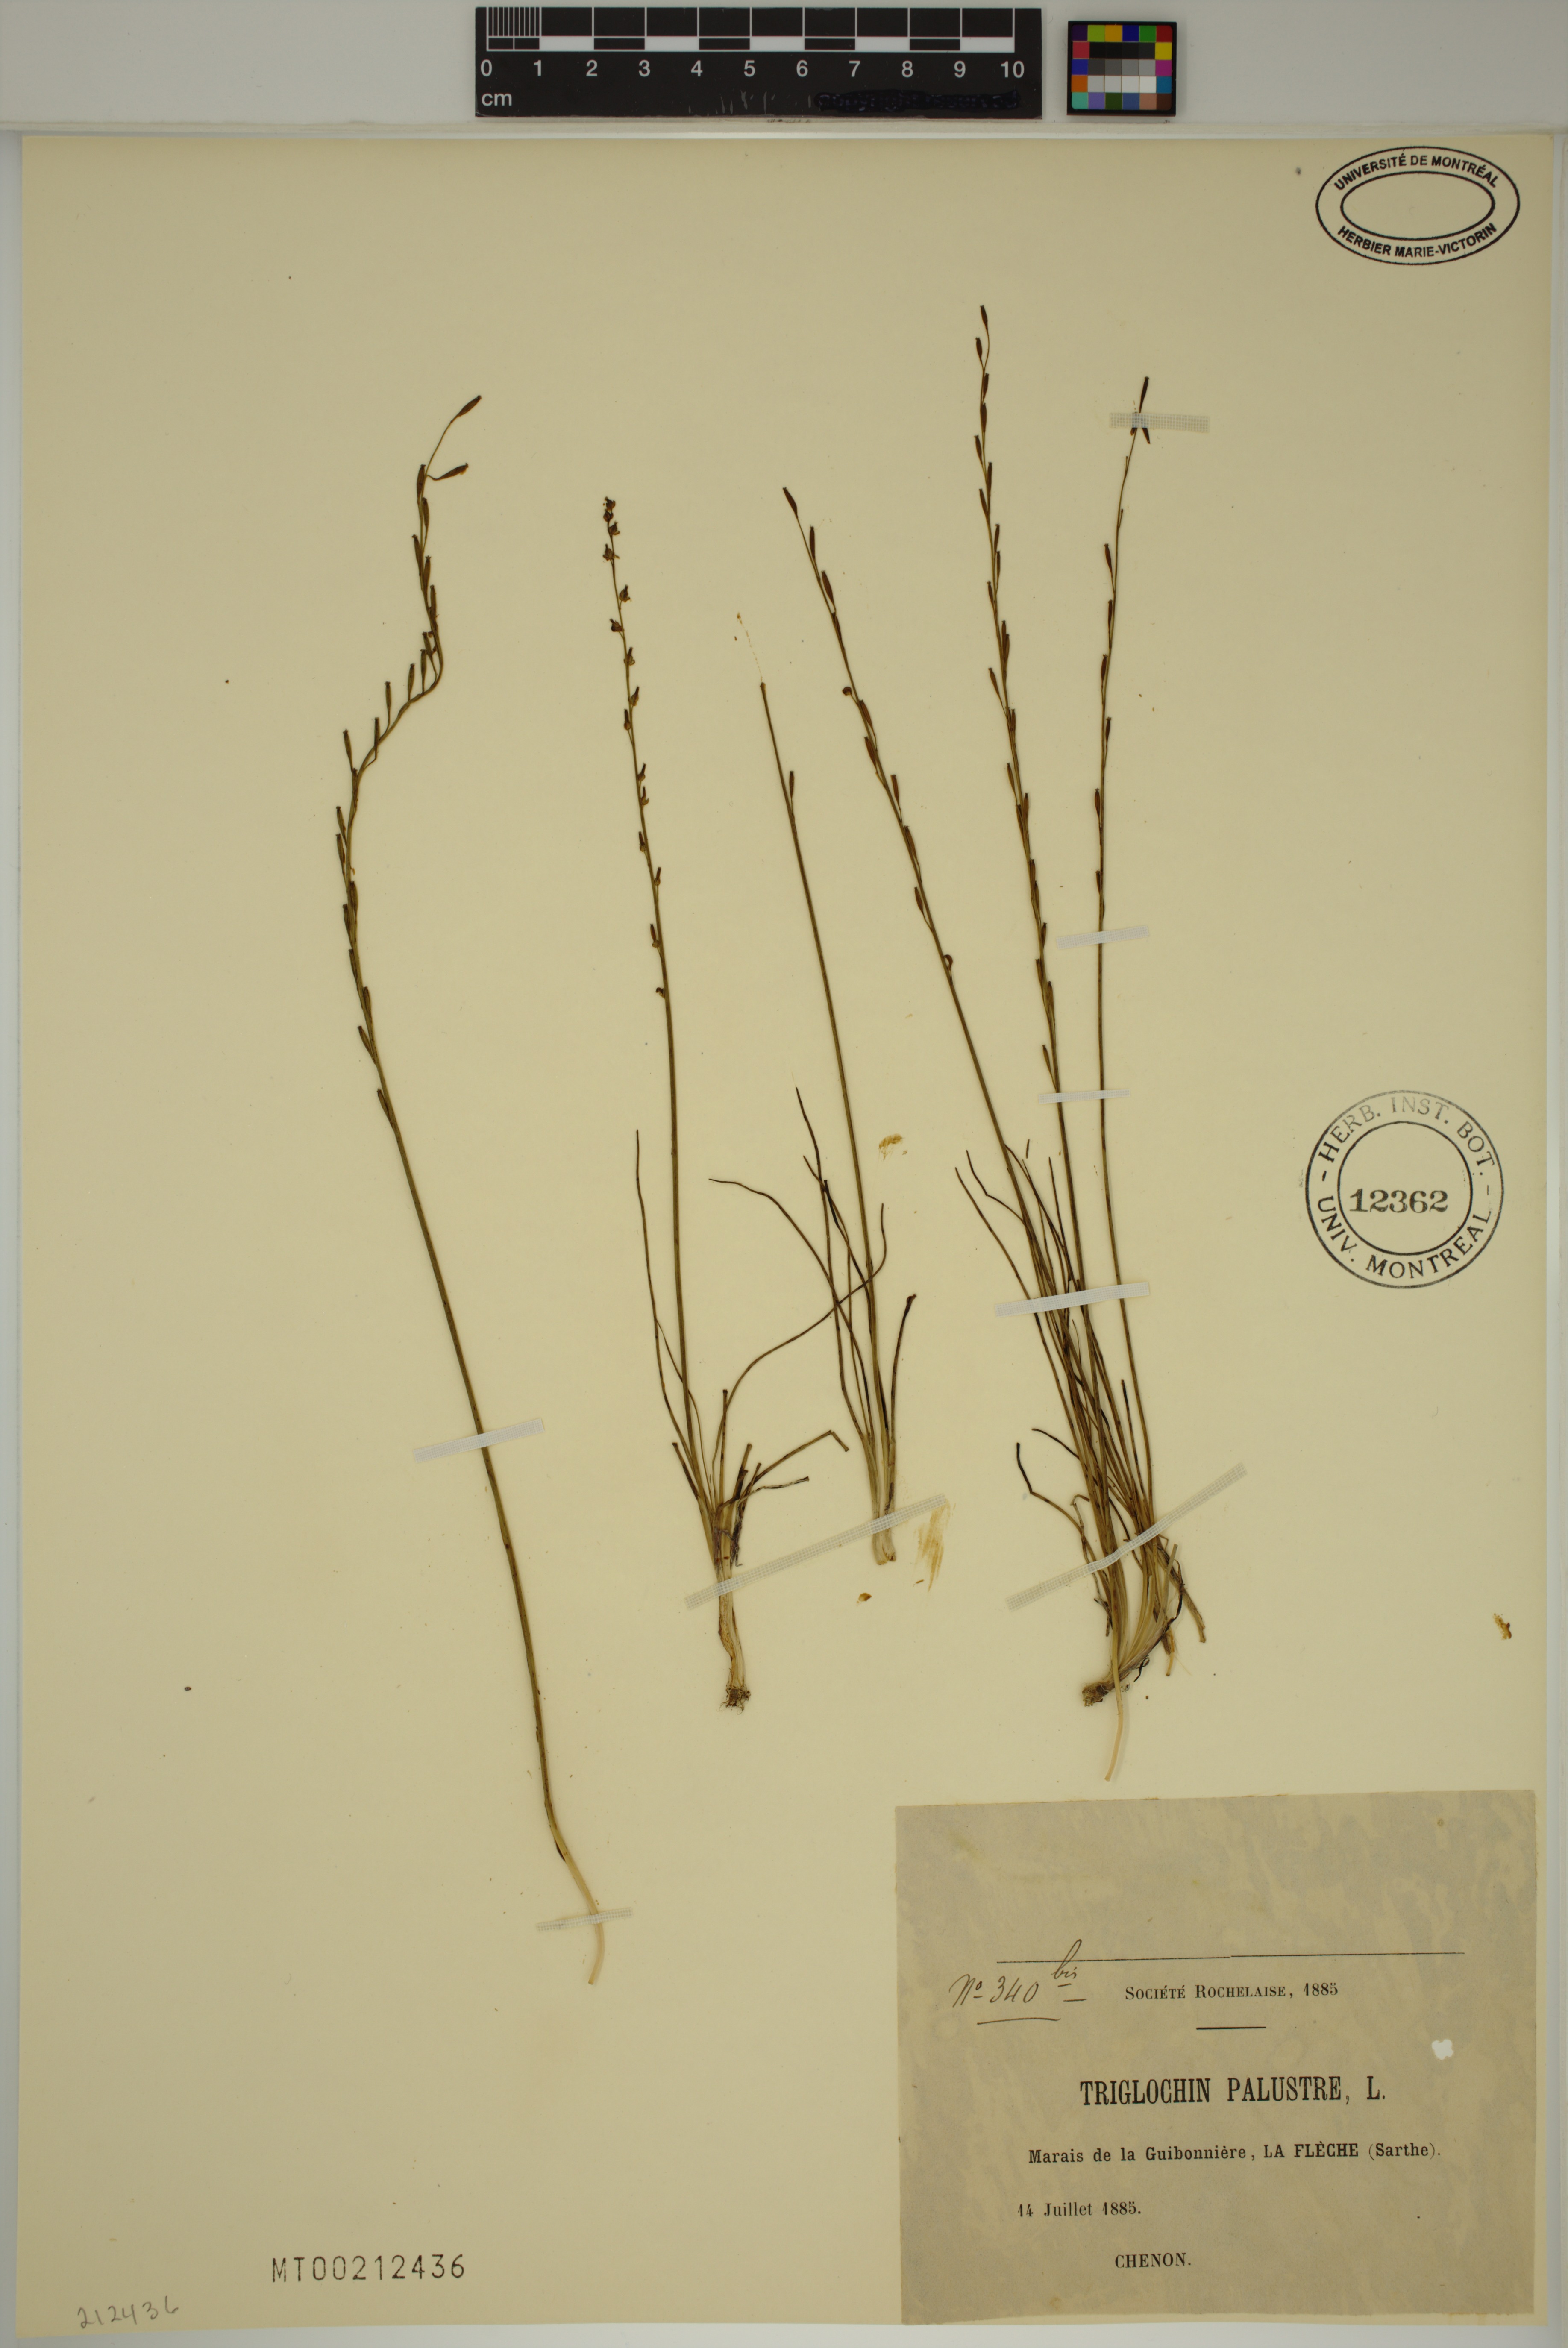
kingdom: Plantae
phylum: Tracheophyta
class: Liliopsida
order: Alismatales
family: Juncaginaceae
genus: Triglochin
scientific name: Triglochin palustris
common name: Marsh arrowgrass
